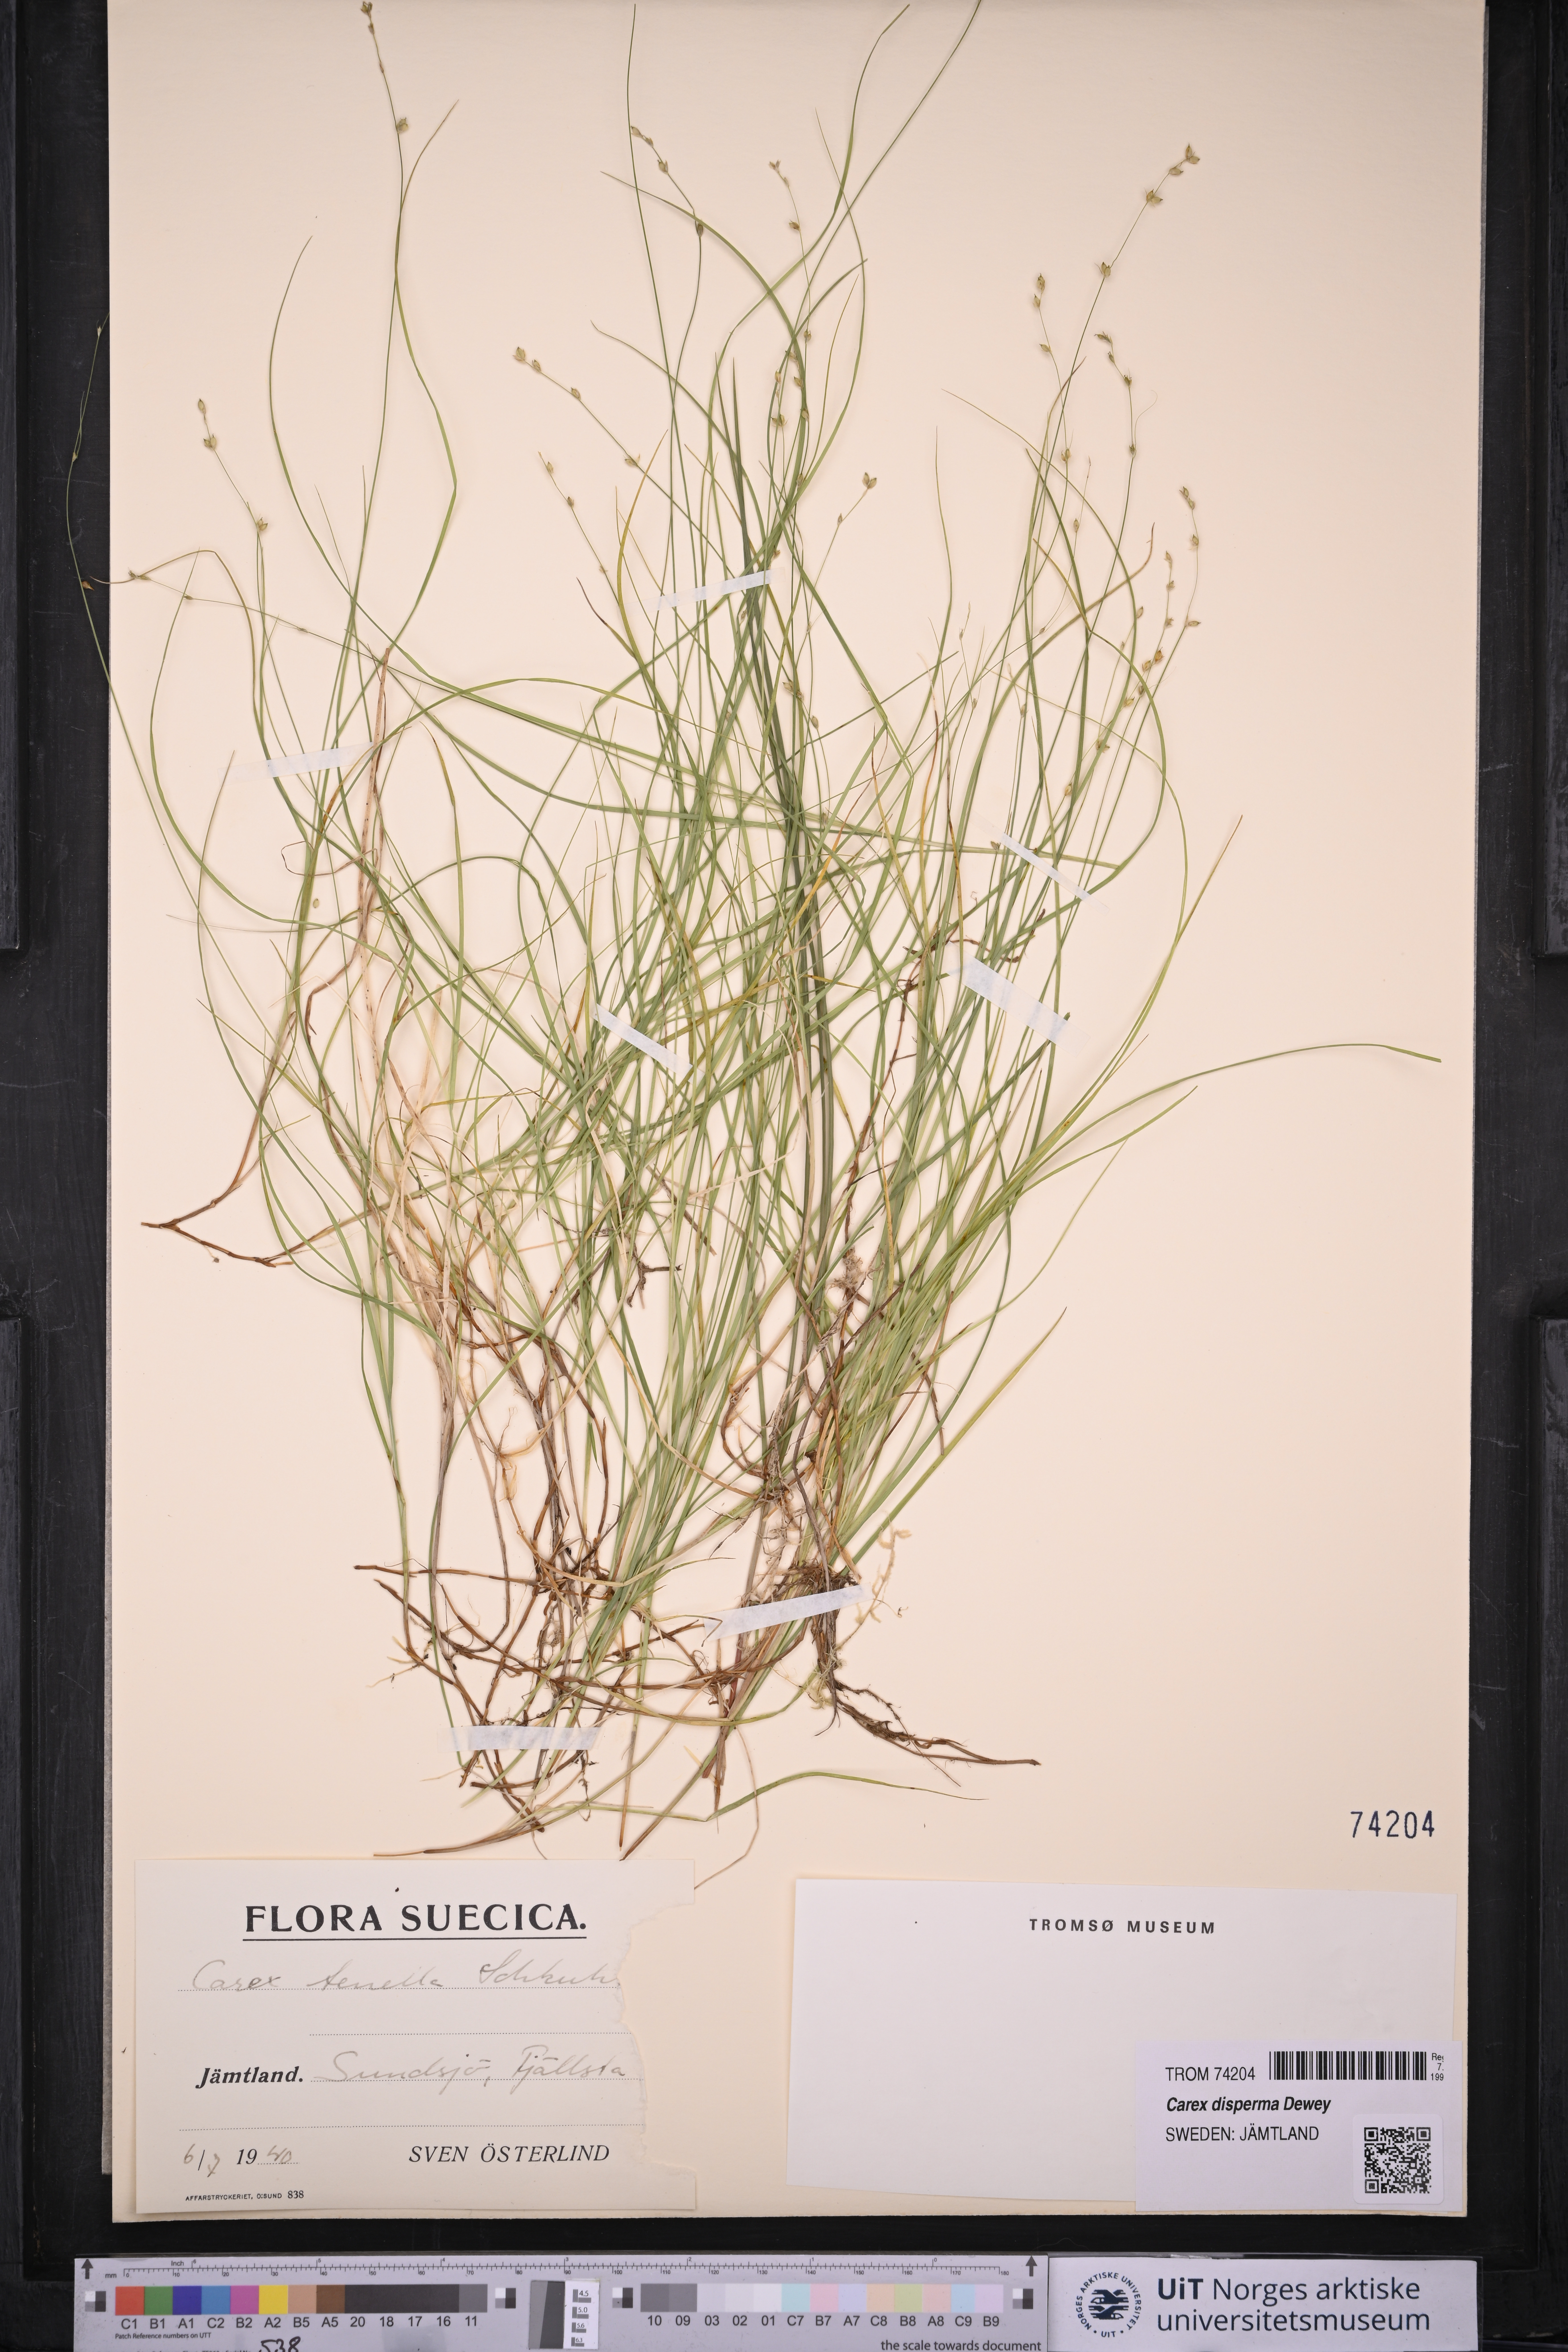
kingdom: Plantae
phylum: Tracheophyta
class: Liliopsida
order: Poales
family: Cyperaceae
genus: Carex
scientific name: Carex disperma
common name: Short-leaved sedge
